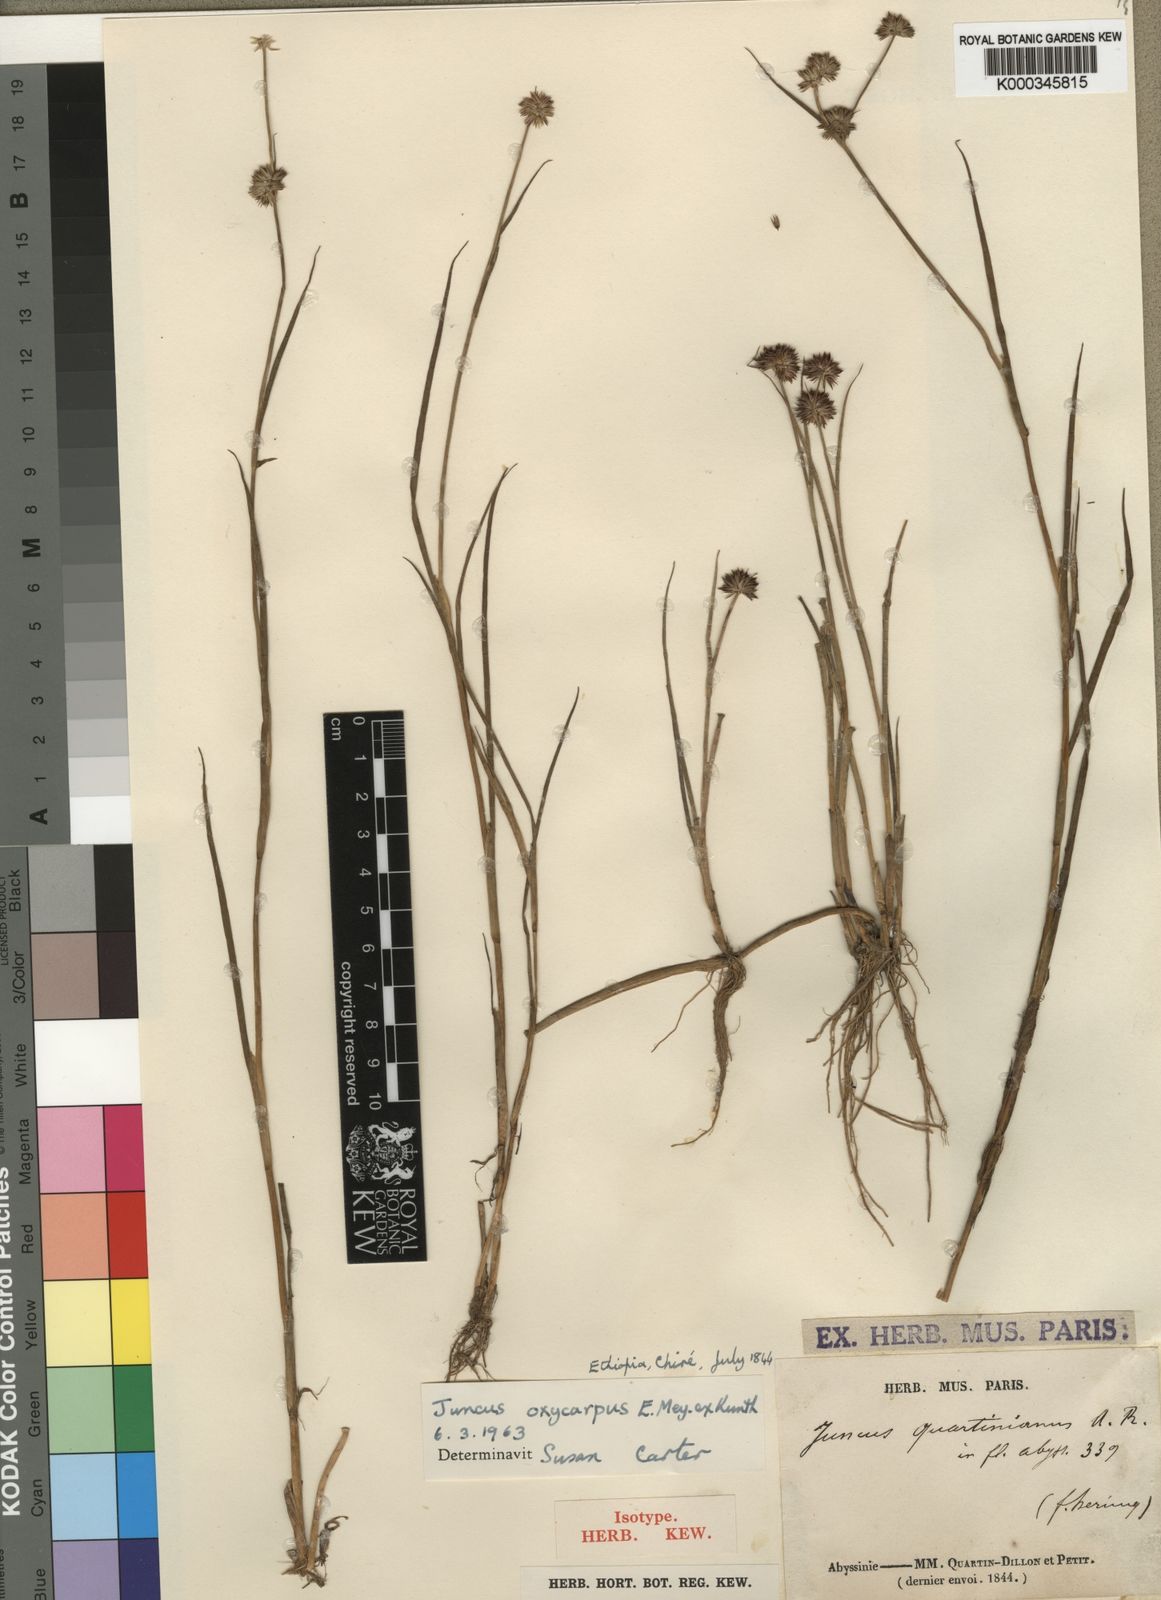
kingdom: Plantae
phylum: Tracheophyta
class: Liliopsida
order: Poales
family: Juncaceae
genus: Juncus
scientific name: Juncus oxycarpus
